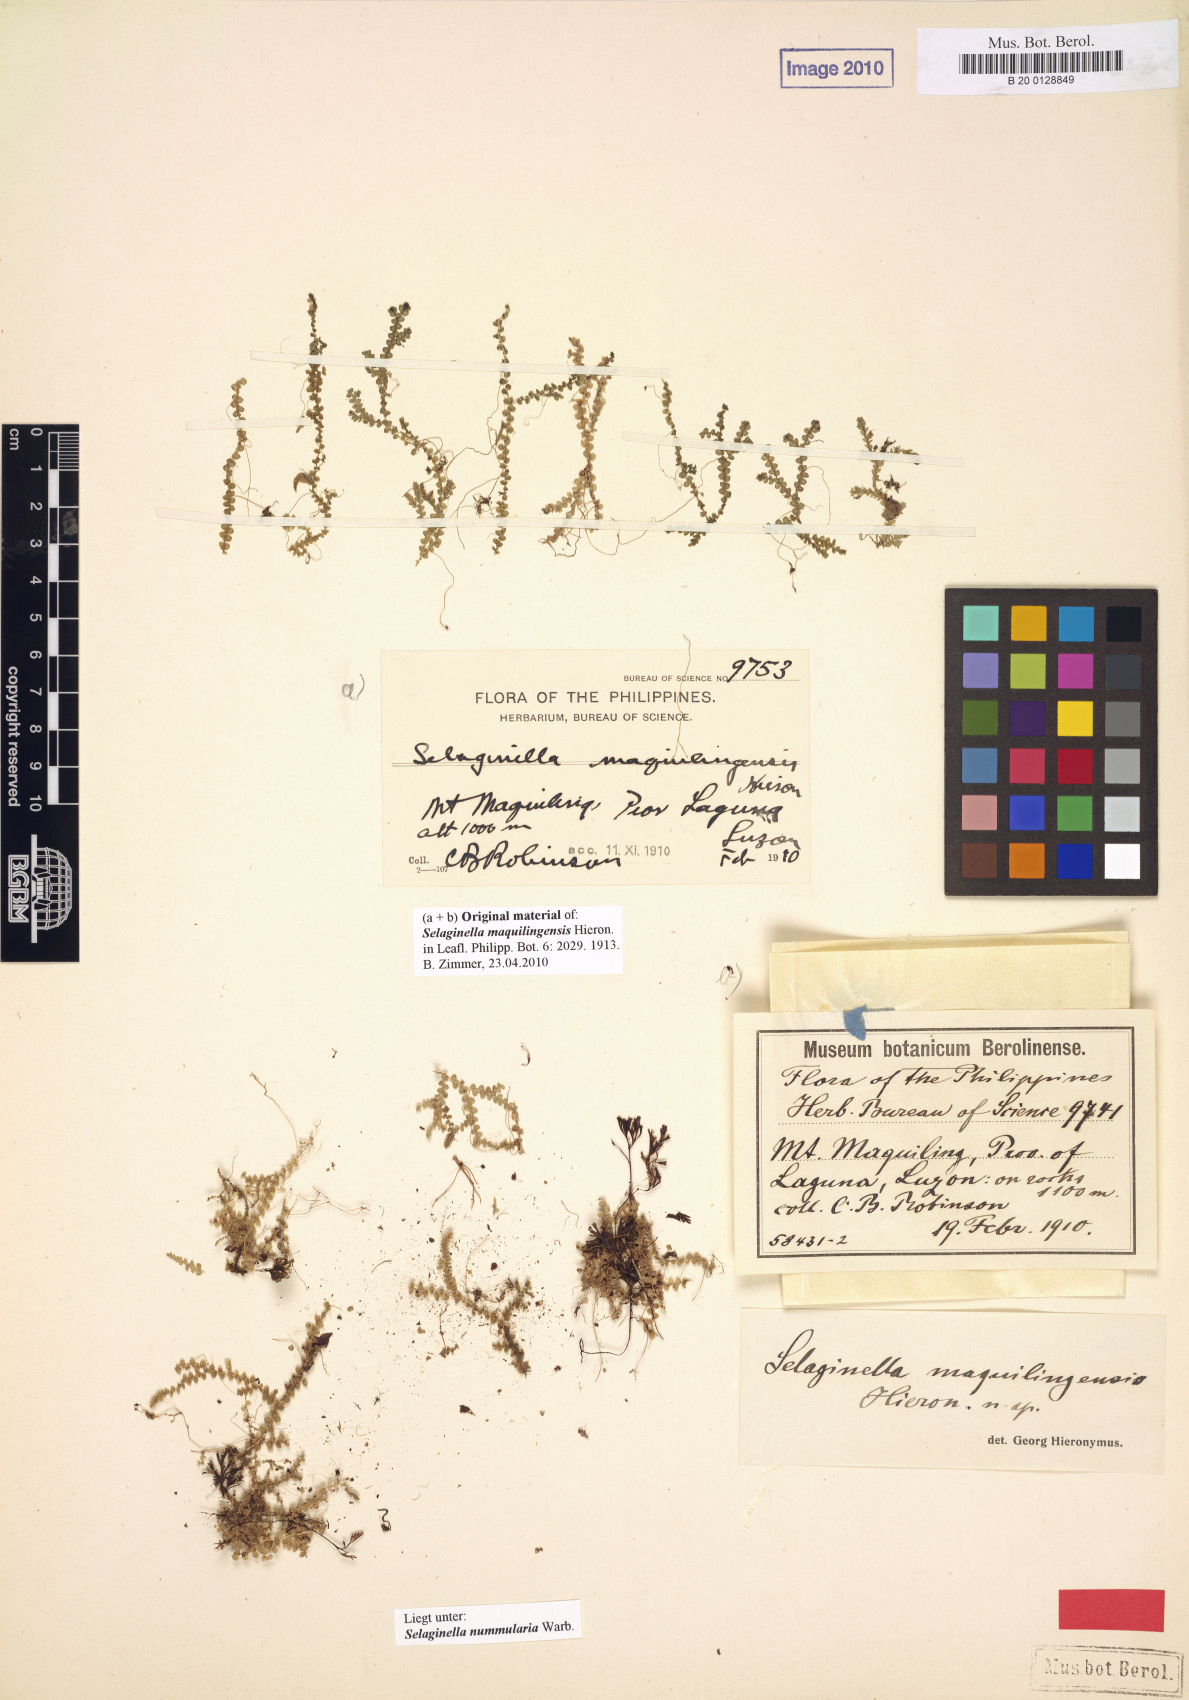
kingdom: Plantae
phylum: Tracheophyta
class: Lycopodiopsida
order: Selaginellales
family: Selaginellaceae
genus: Selaginella
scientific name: Selaginella nummularia
